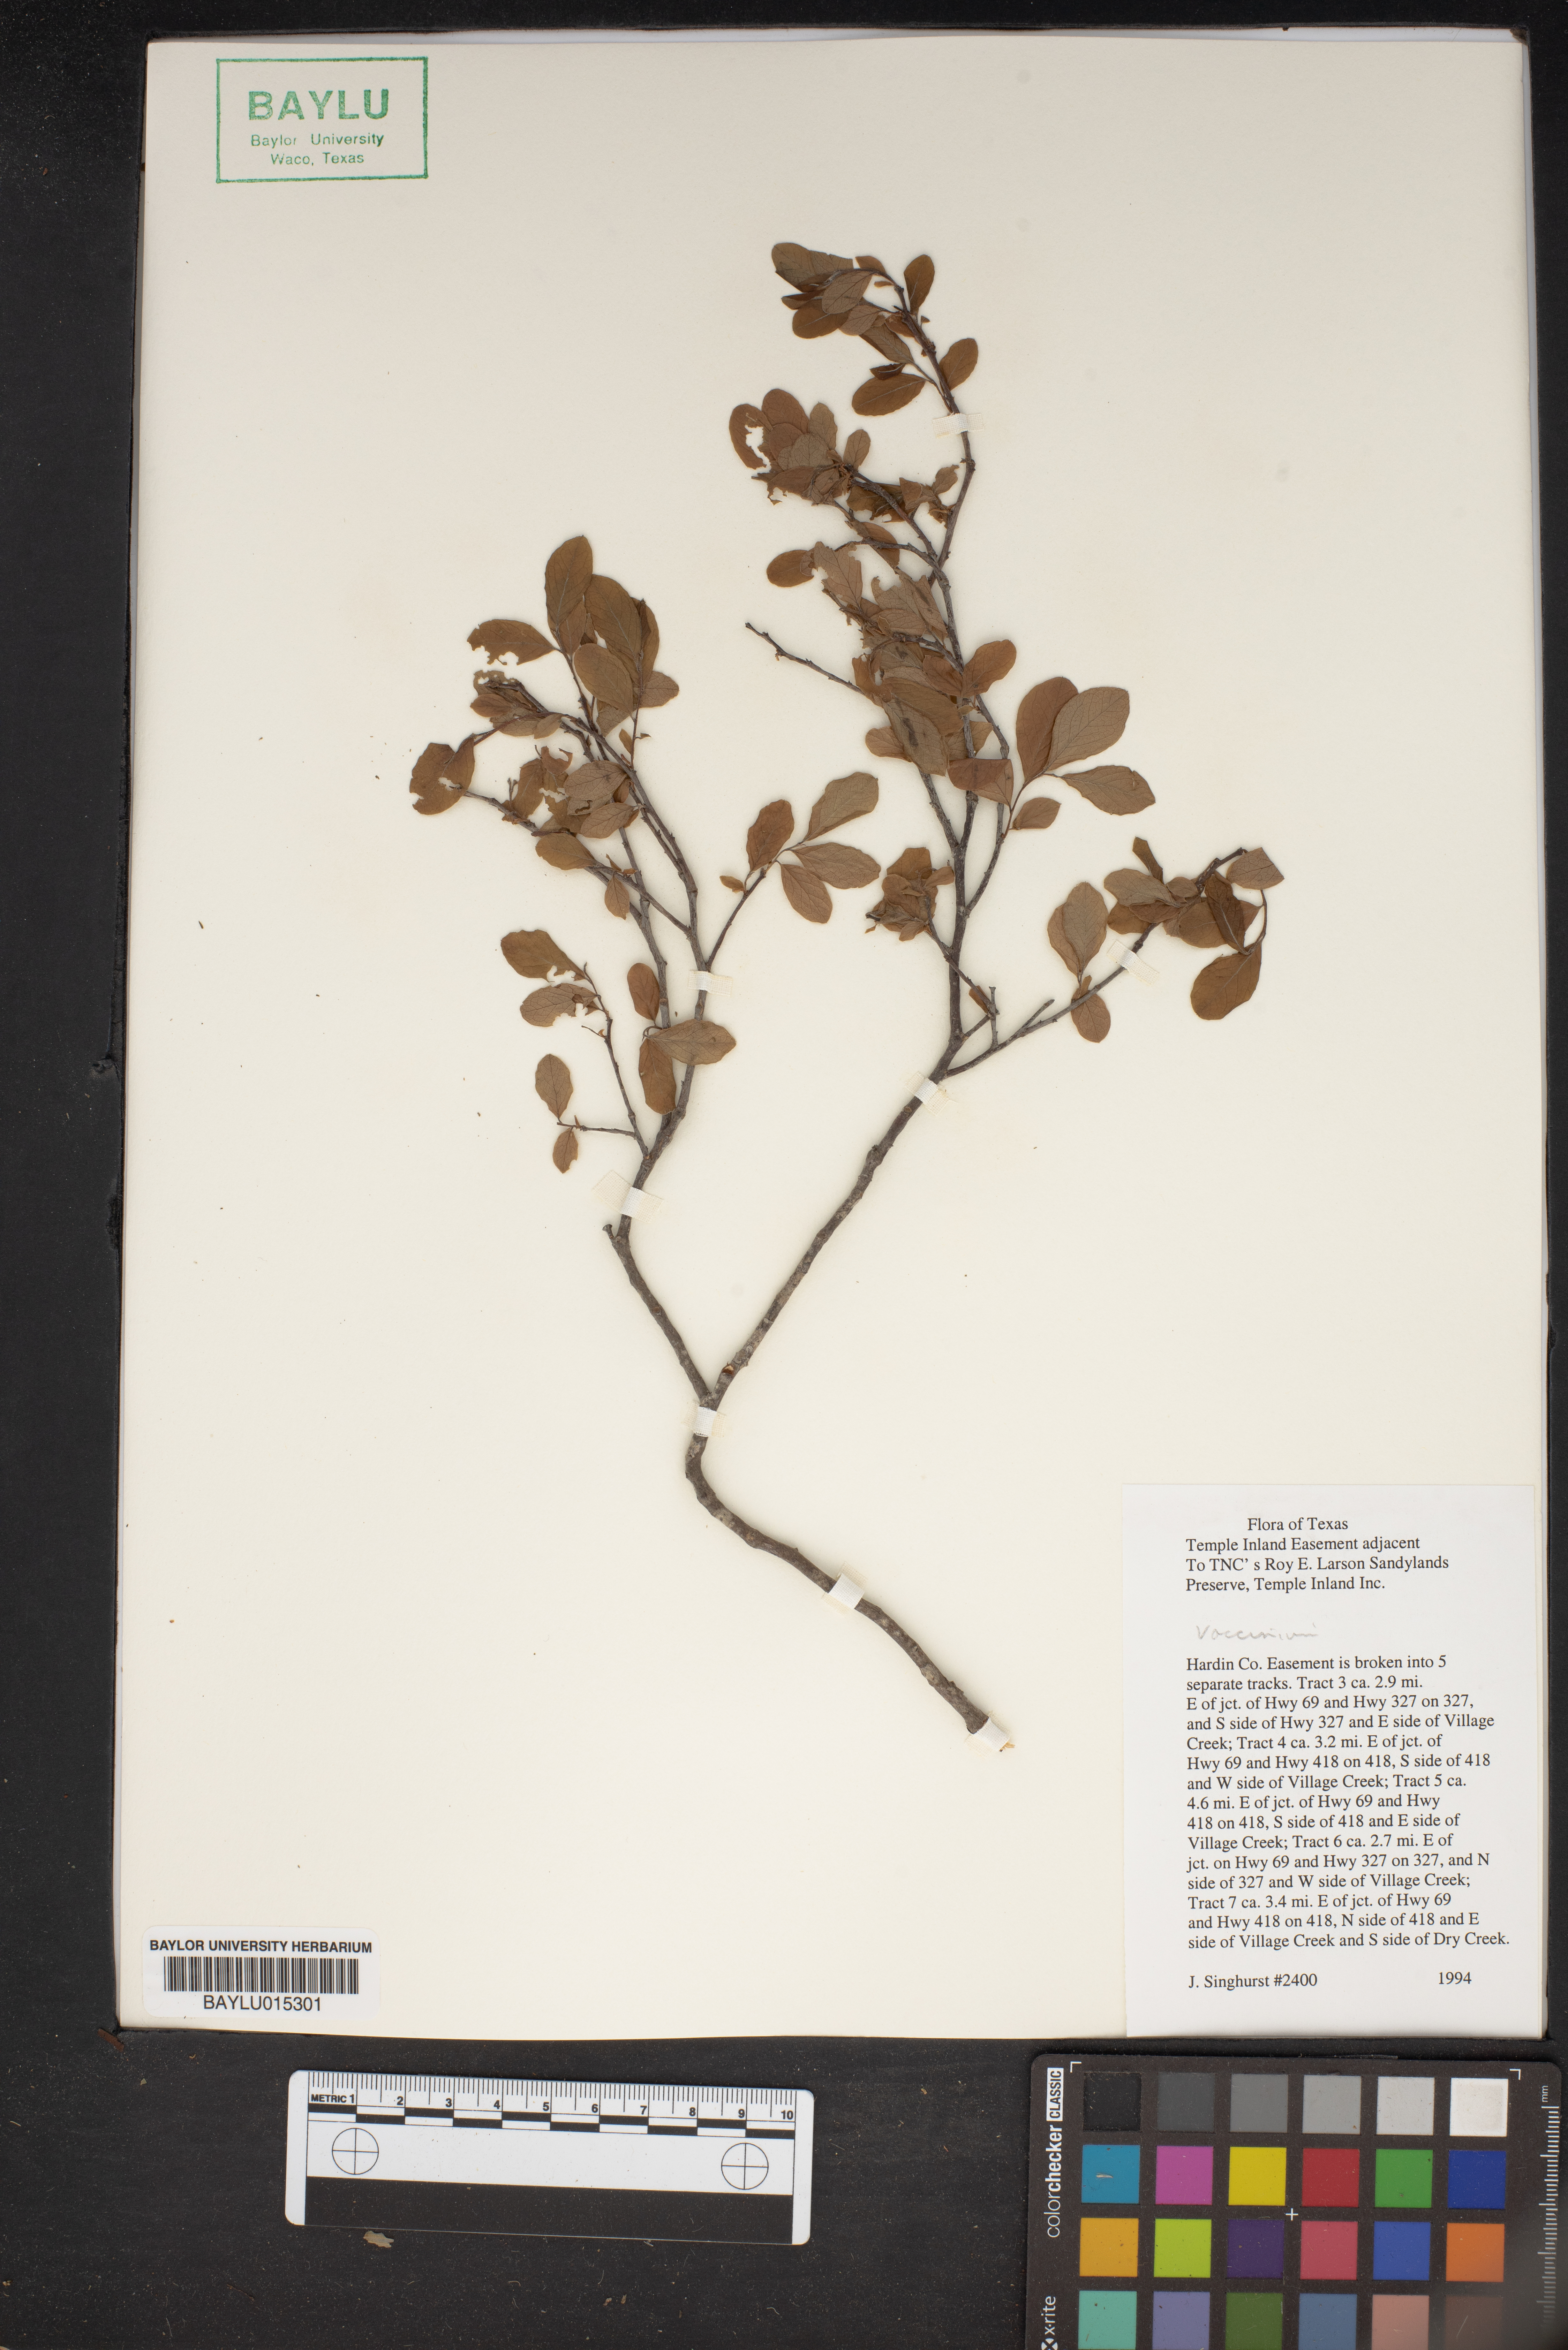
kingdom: Plantae
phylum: Tracheophyta
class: Magnoliopsida
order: Ericales
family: Ericaceae
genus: Vaccinium
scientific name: Vaccinium
